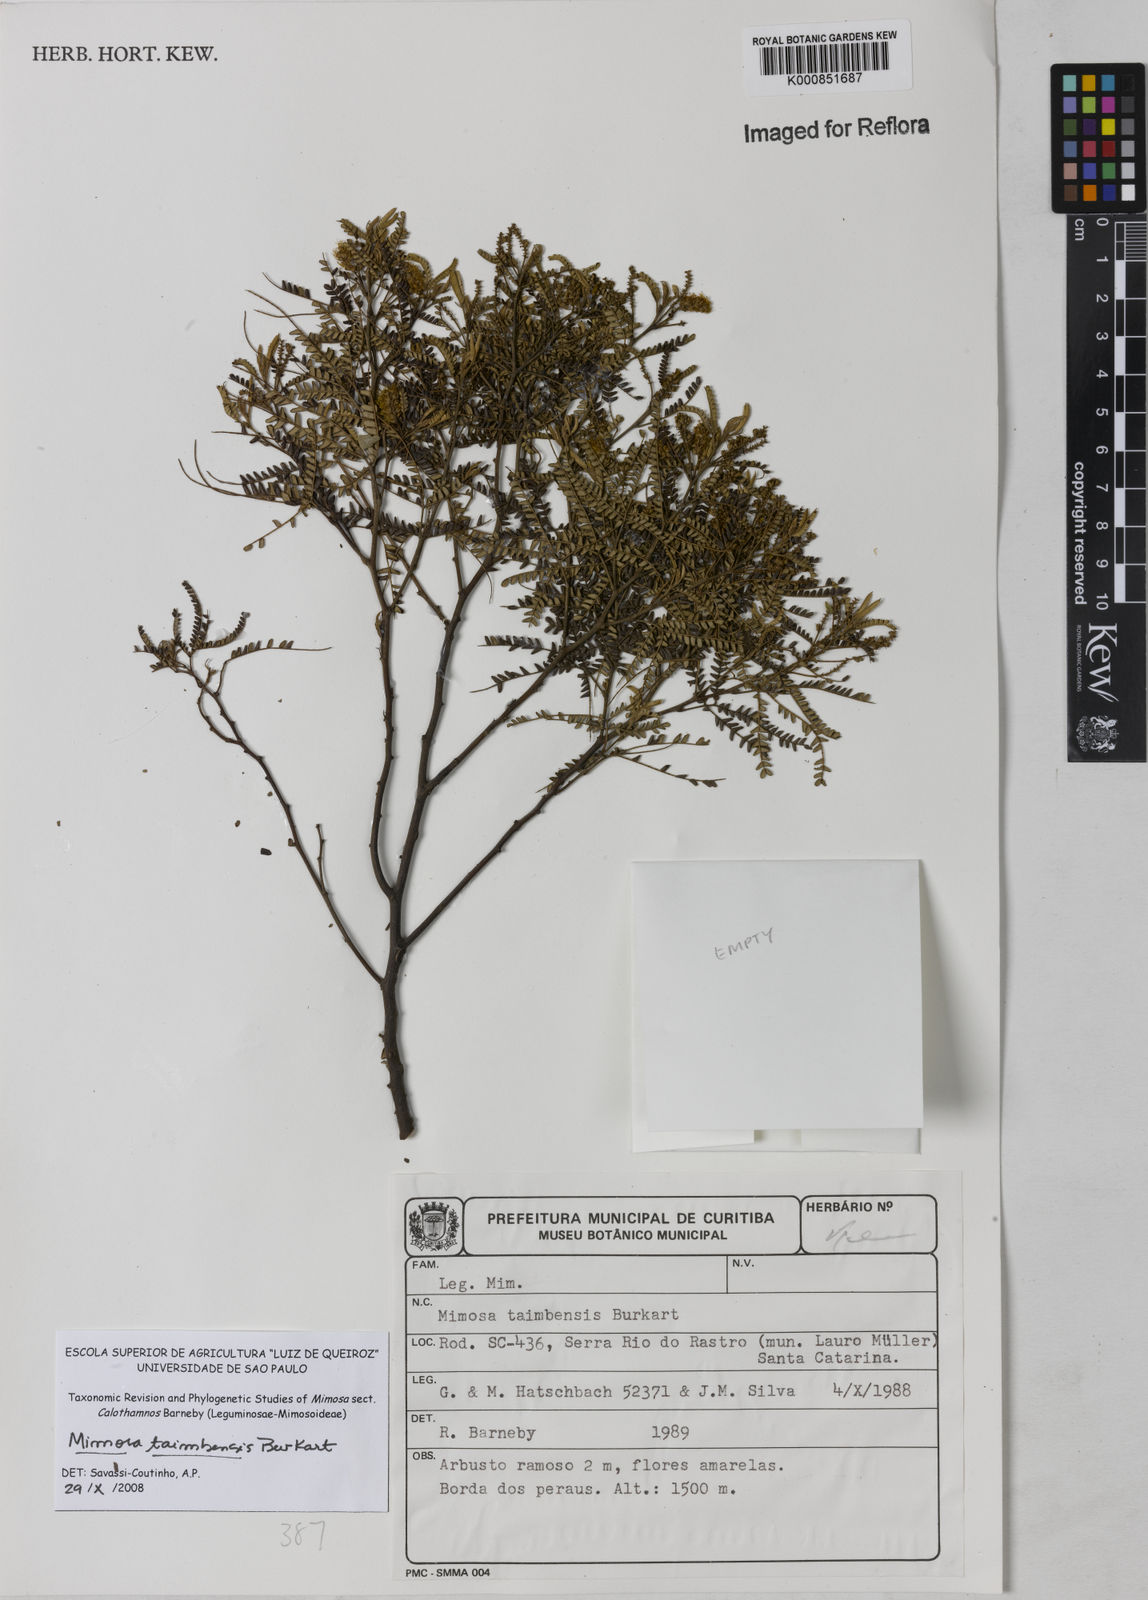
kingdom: Plantae
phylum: Tracheophyta
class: Magnoliopsida
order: Fabales
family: Fabaceae
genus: Mimosa
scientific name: Mimosa taimbensis
